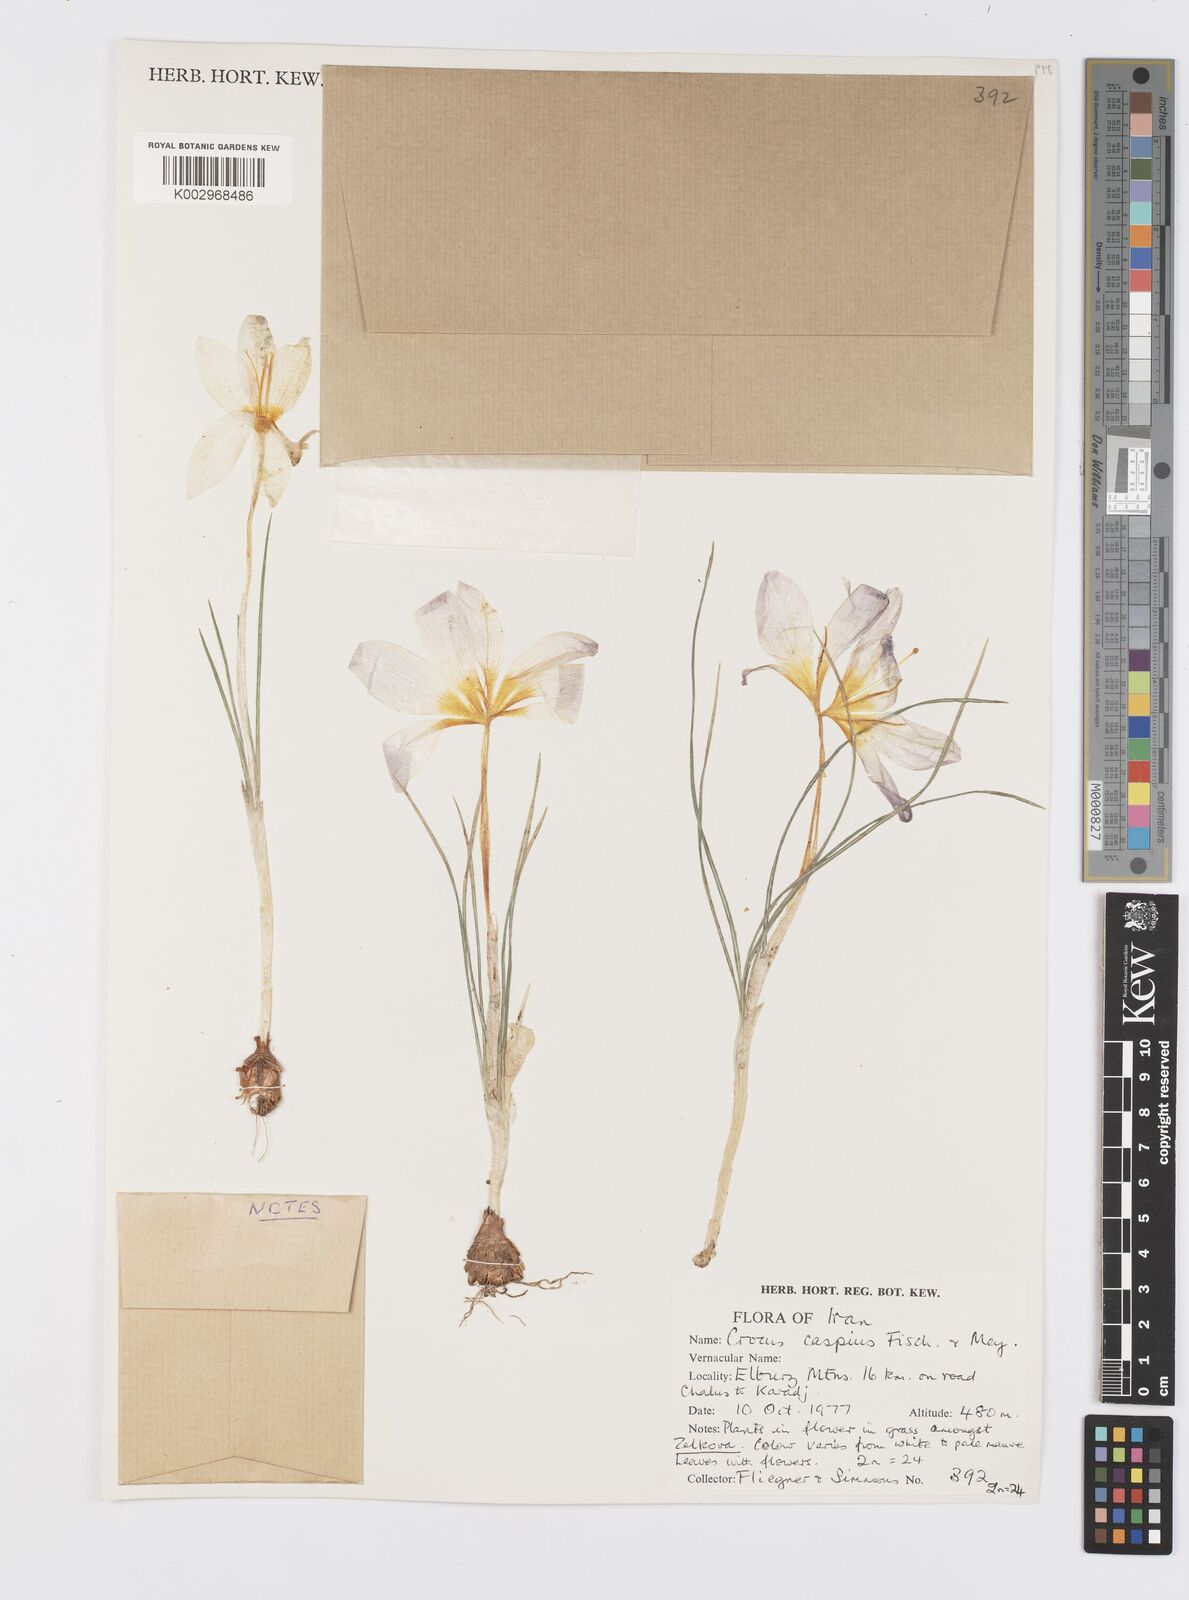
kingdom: Plantae
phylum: Tracheophyta
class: Liliopsida
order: Asparagales
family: Iridaceae
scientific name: Iridaceae
